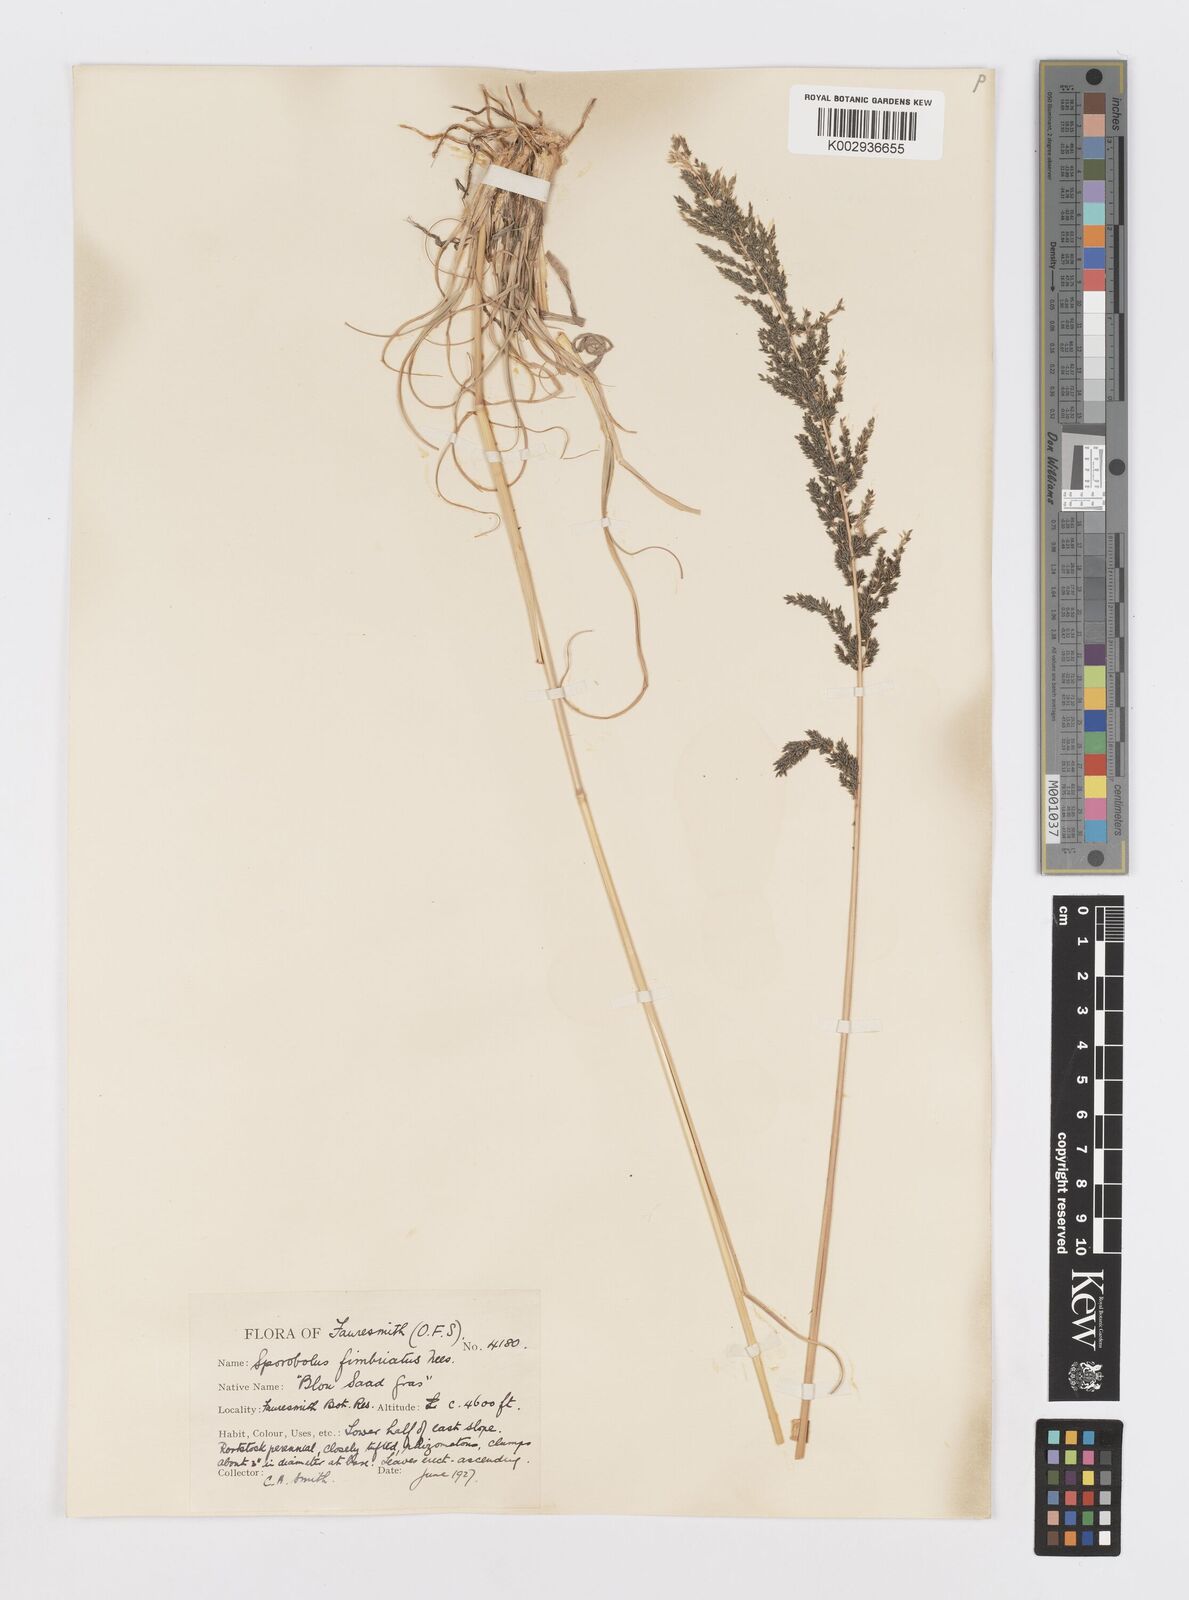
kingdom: Plantae
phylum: Tracheophyta
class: Liliopsida
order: Poales
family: Poaceae
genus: Sporobolus
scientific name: Sporobolus fimbriatus
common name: Fringed dropseed
